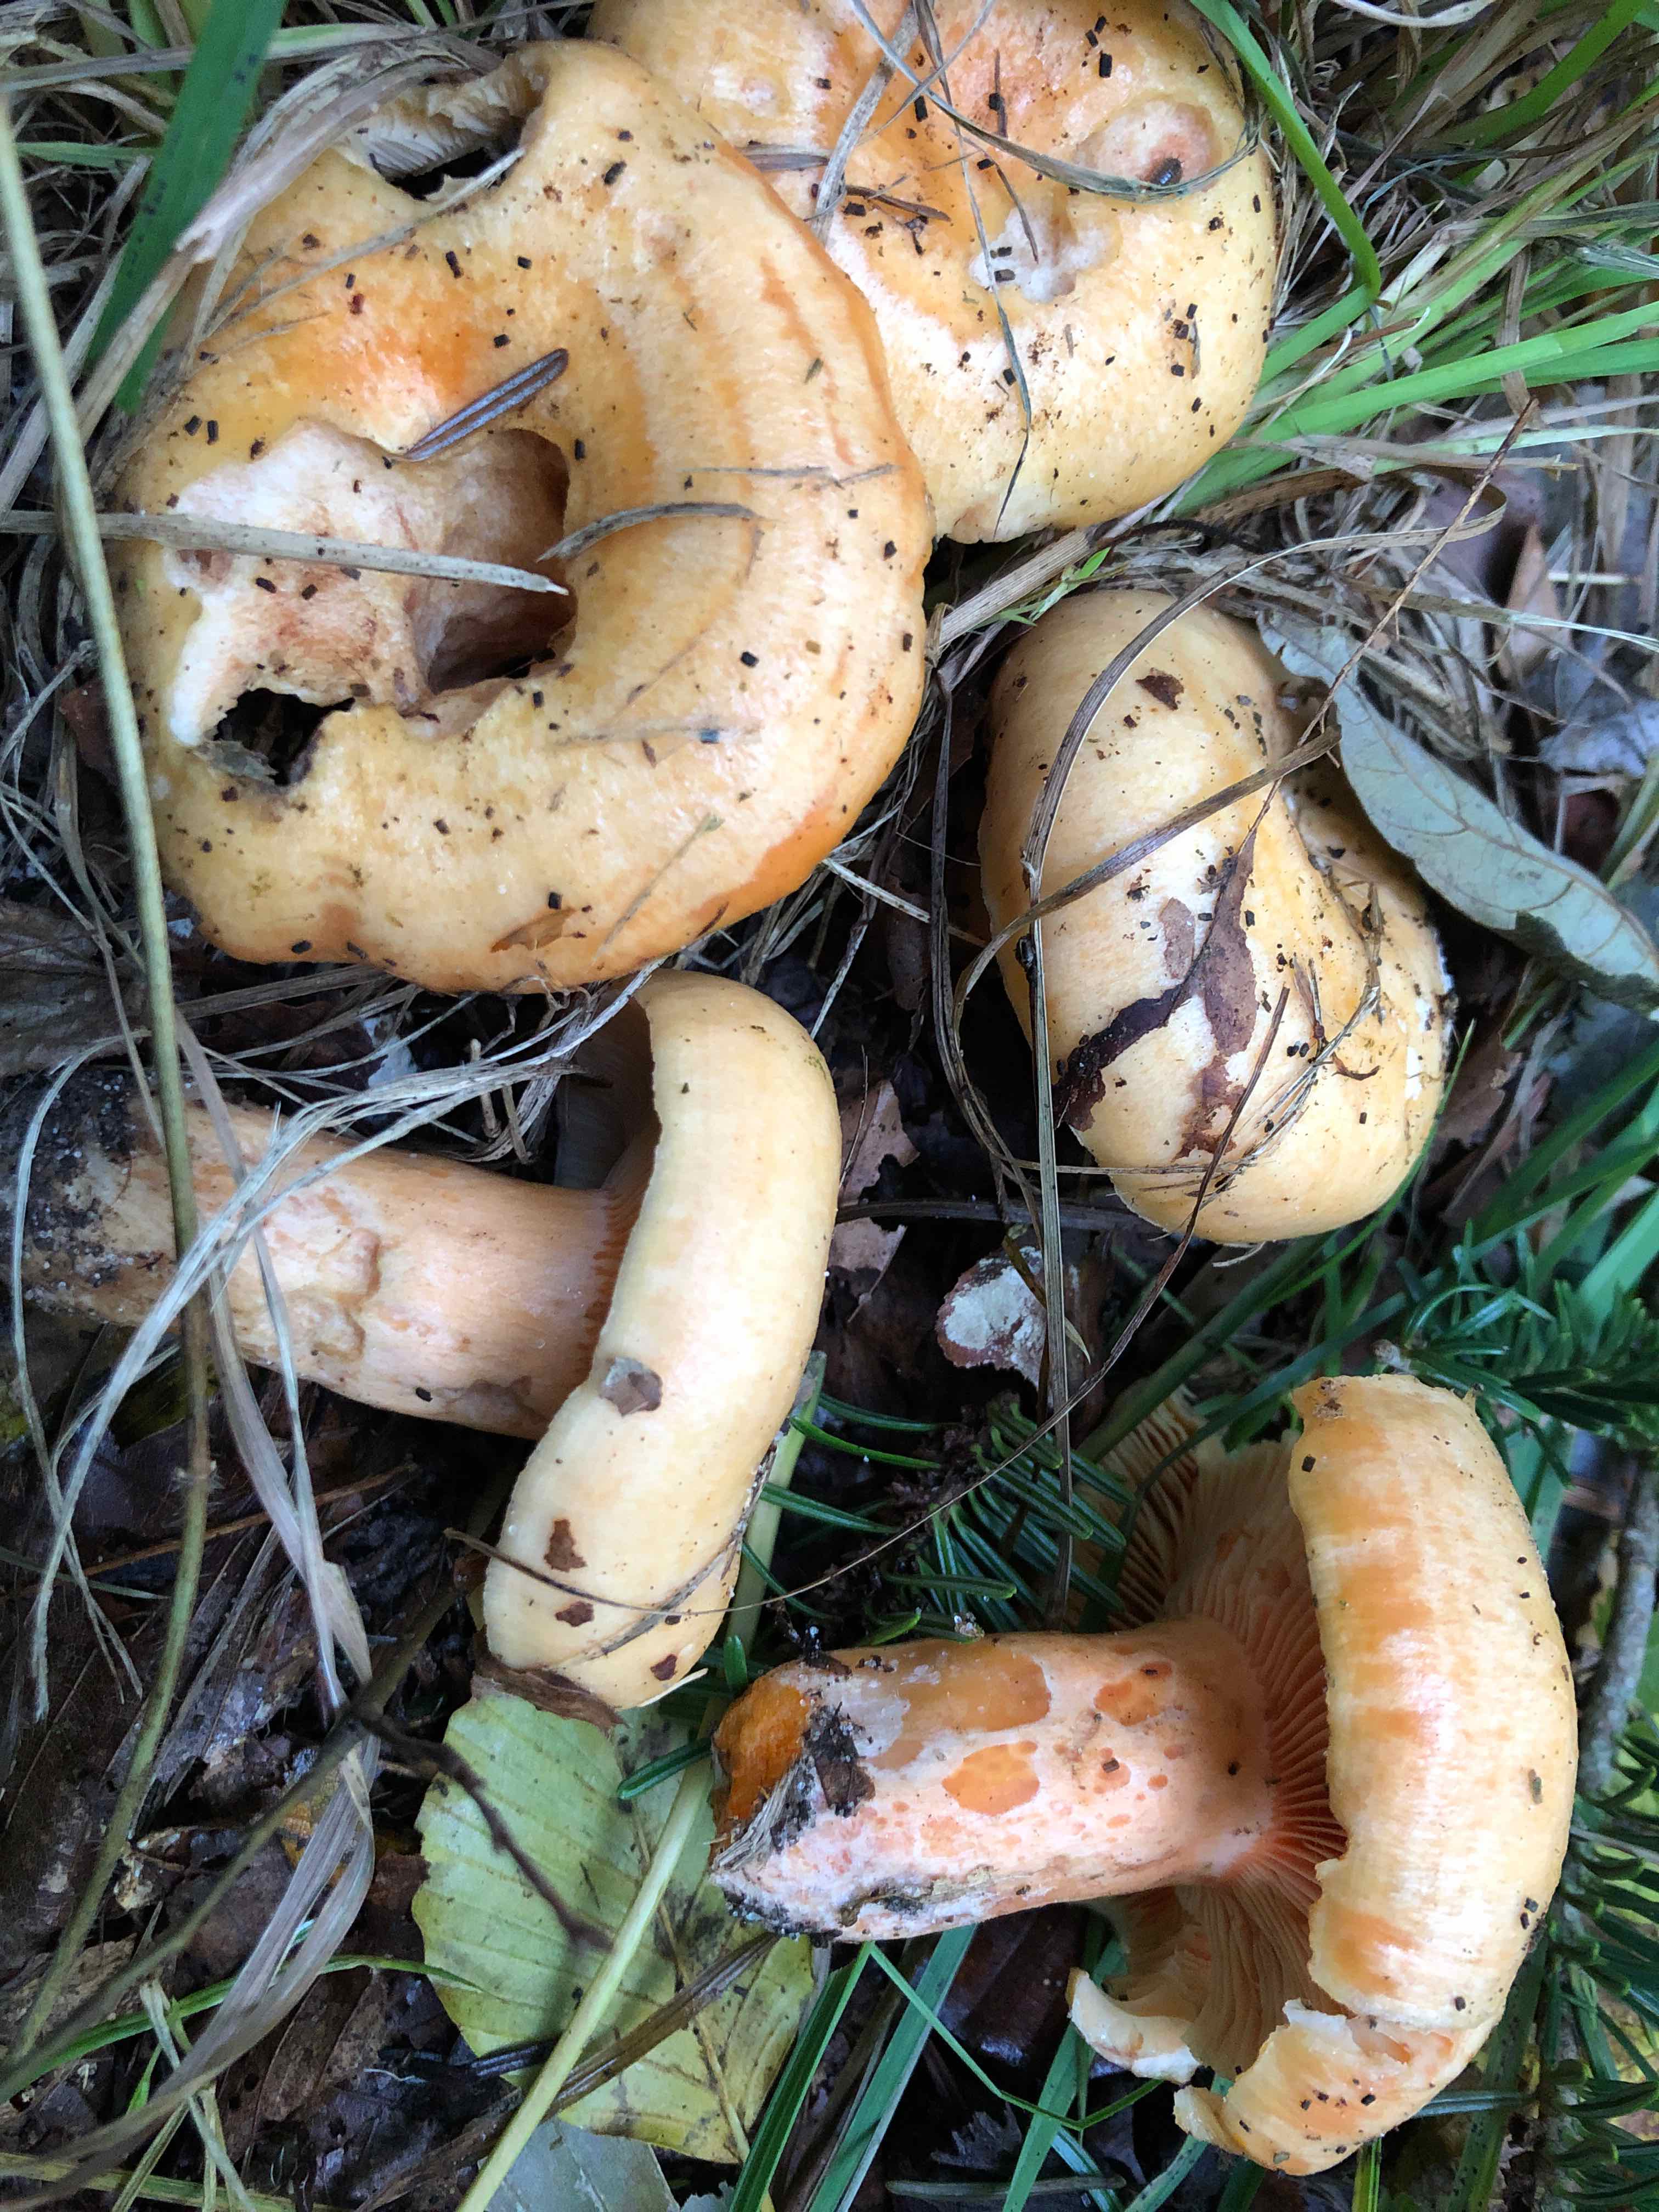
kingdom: Fungi
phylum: Basidiomycota
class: Agaricomycetes
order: Russulales
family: Russulaceae
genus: Lactarius
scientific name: Lactarius deliciosus
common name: velsmagende mælkehat
